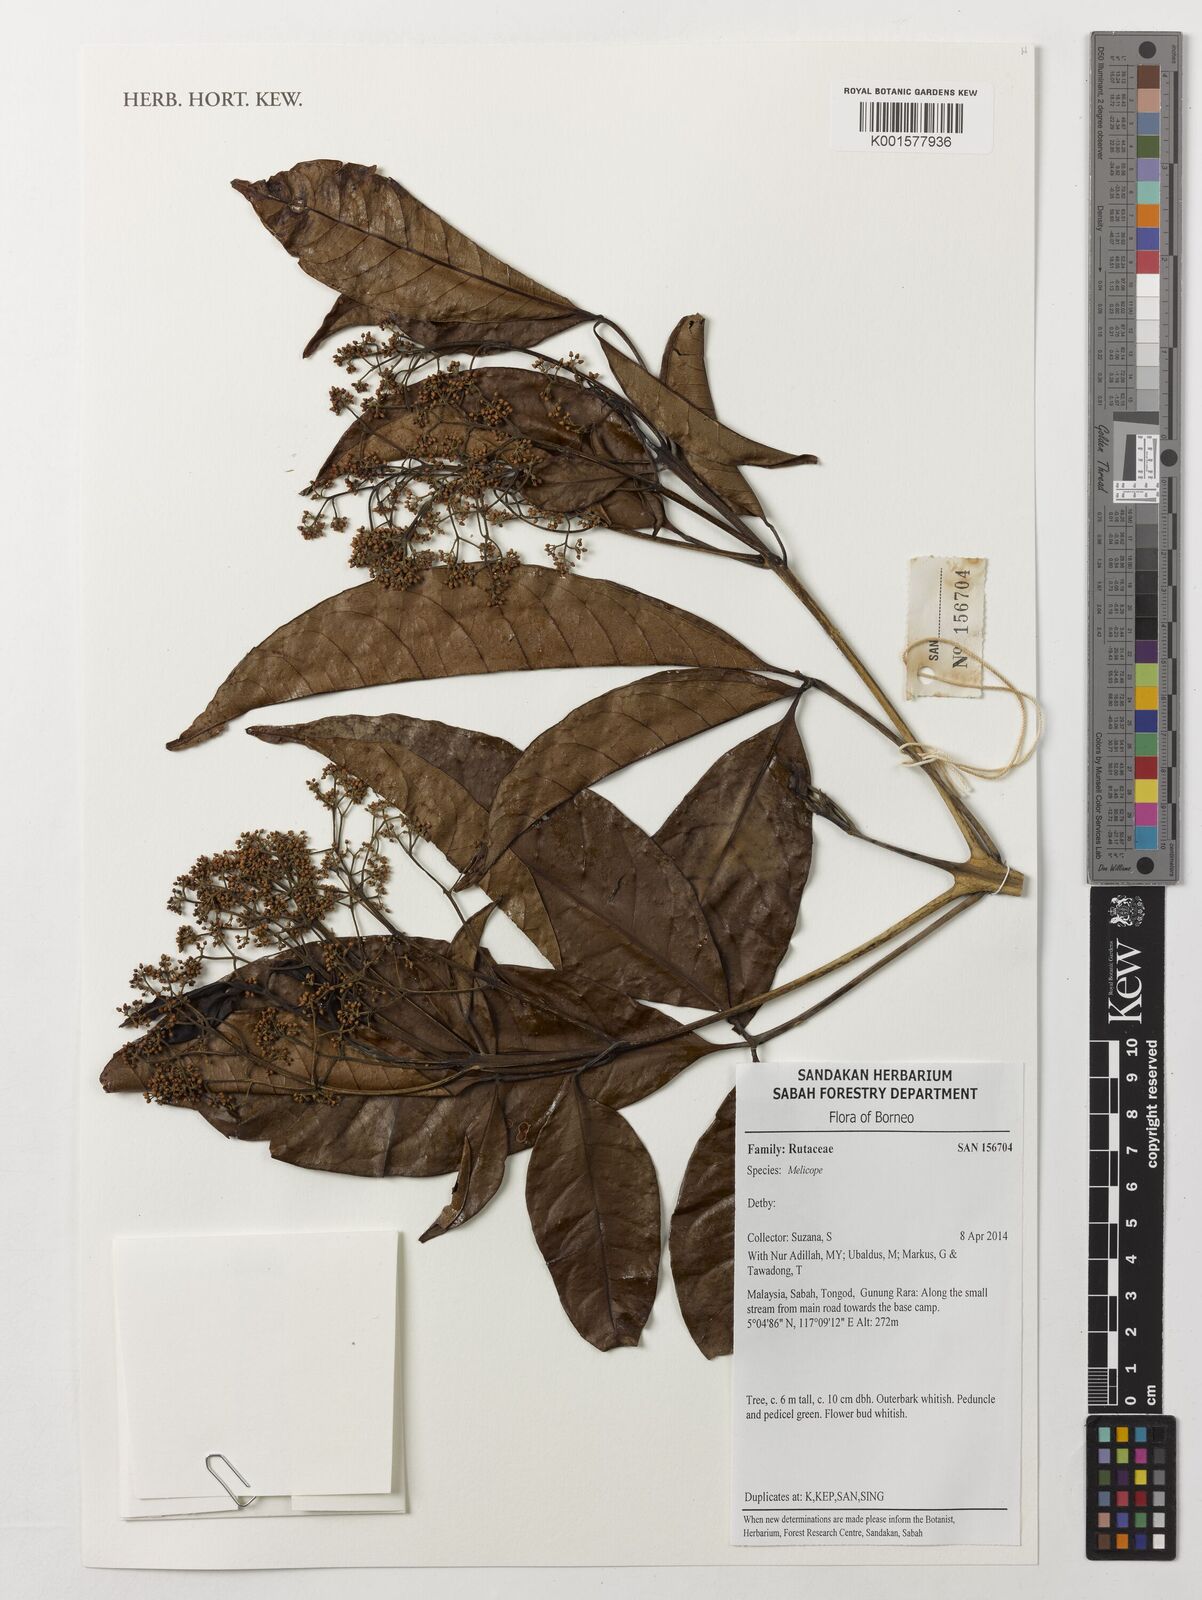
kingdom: Plantae
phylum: Tracheophyta
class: Magnoliopsida
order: Sapindales
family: Rutaceae
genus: Melicope
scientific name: Melicope
